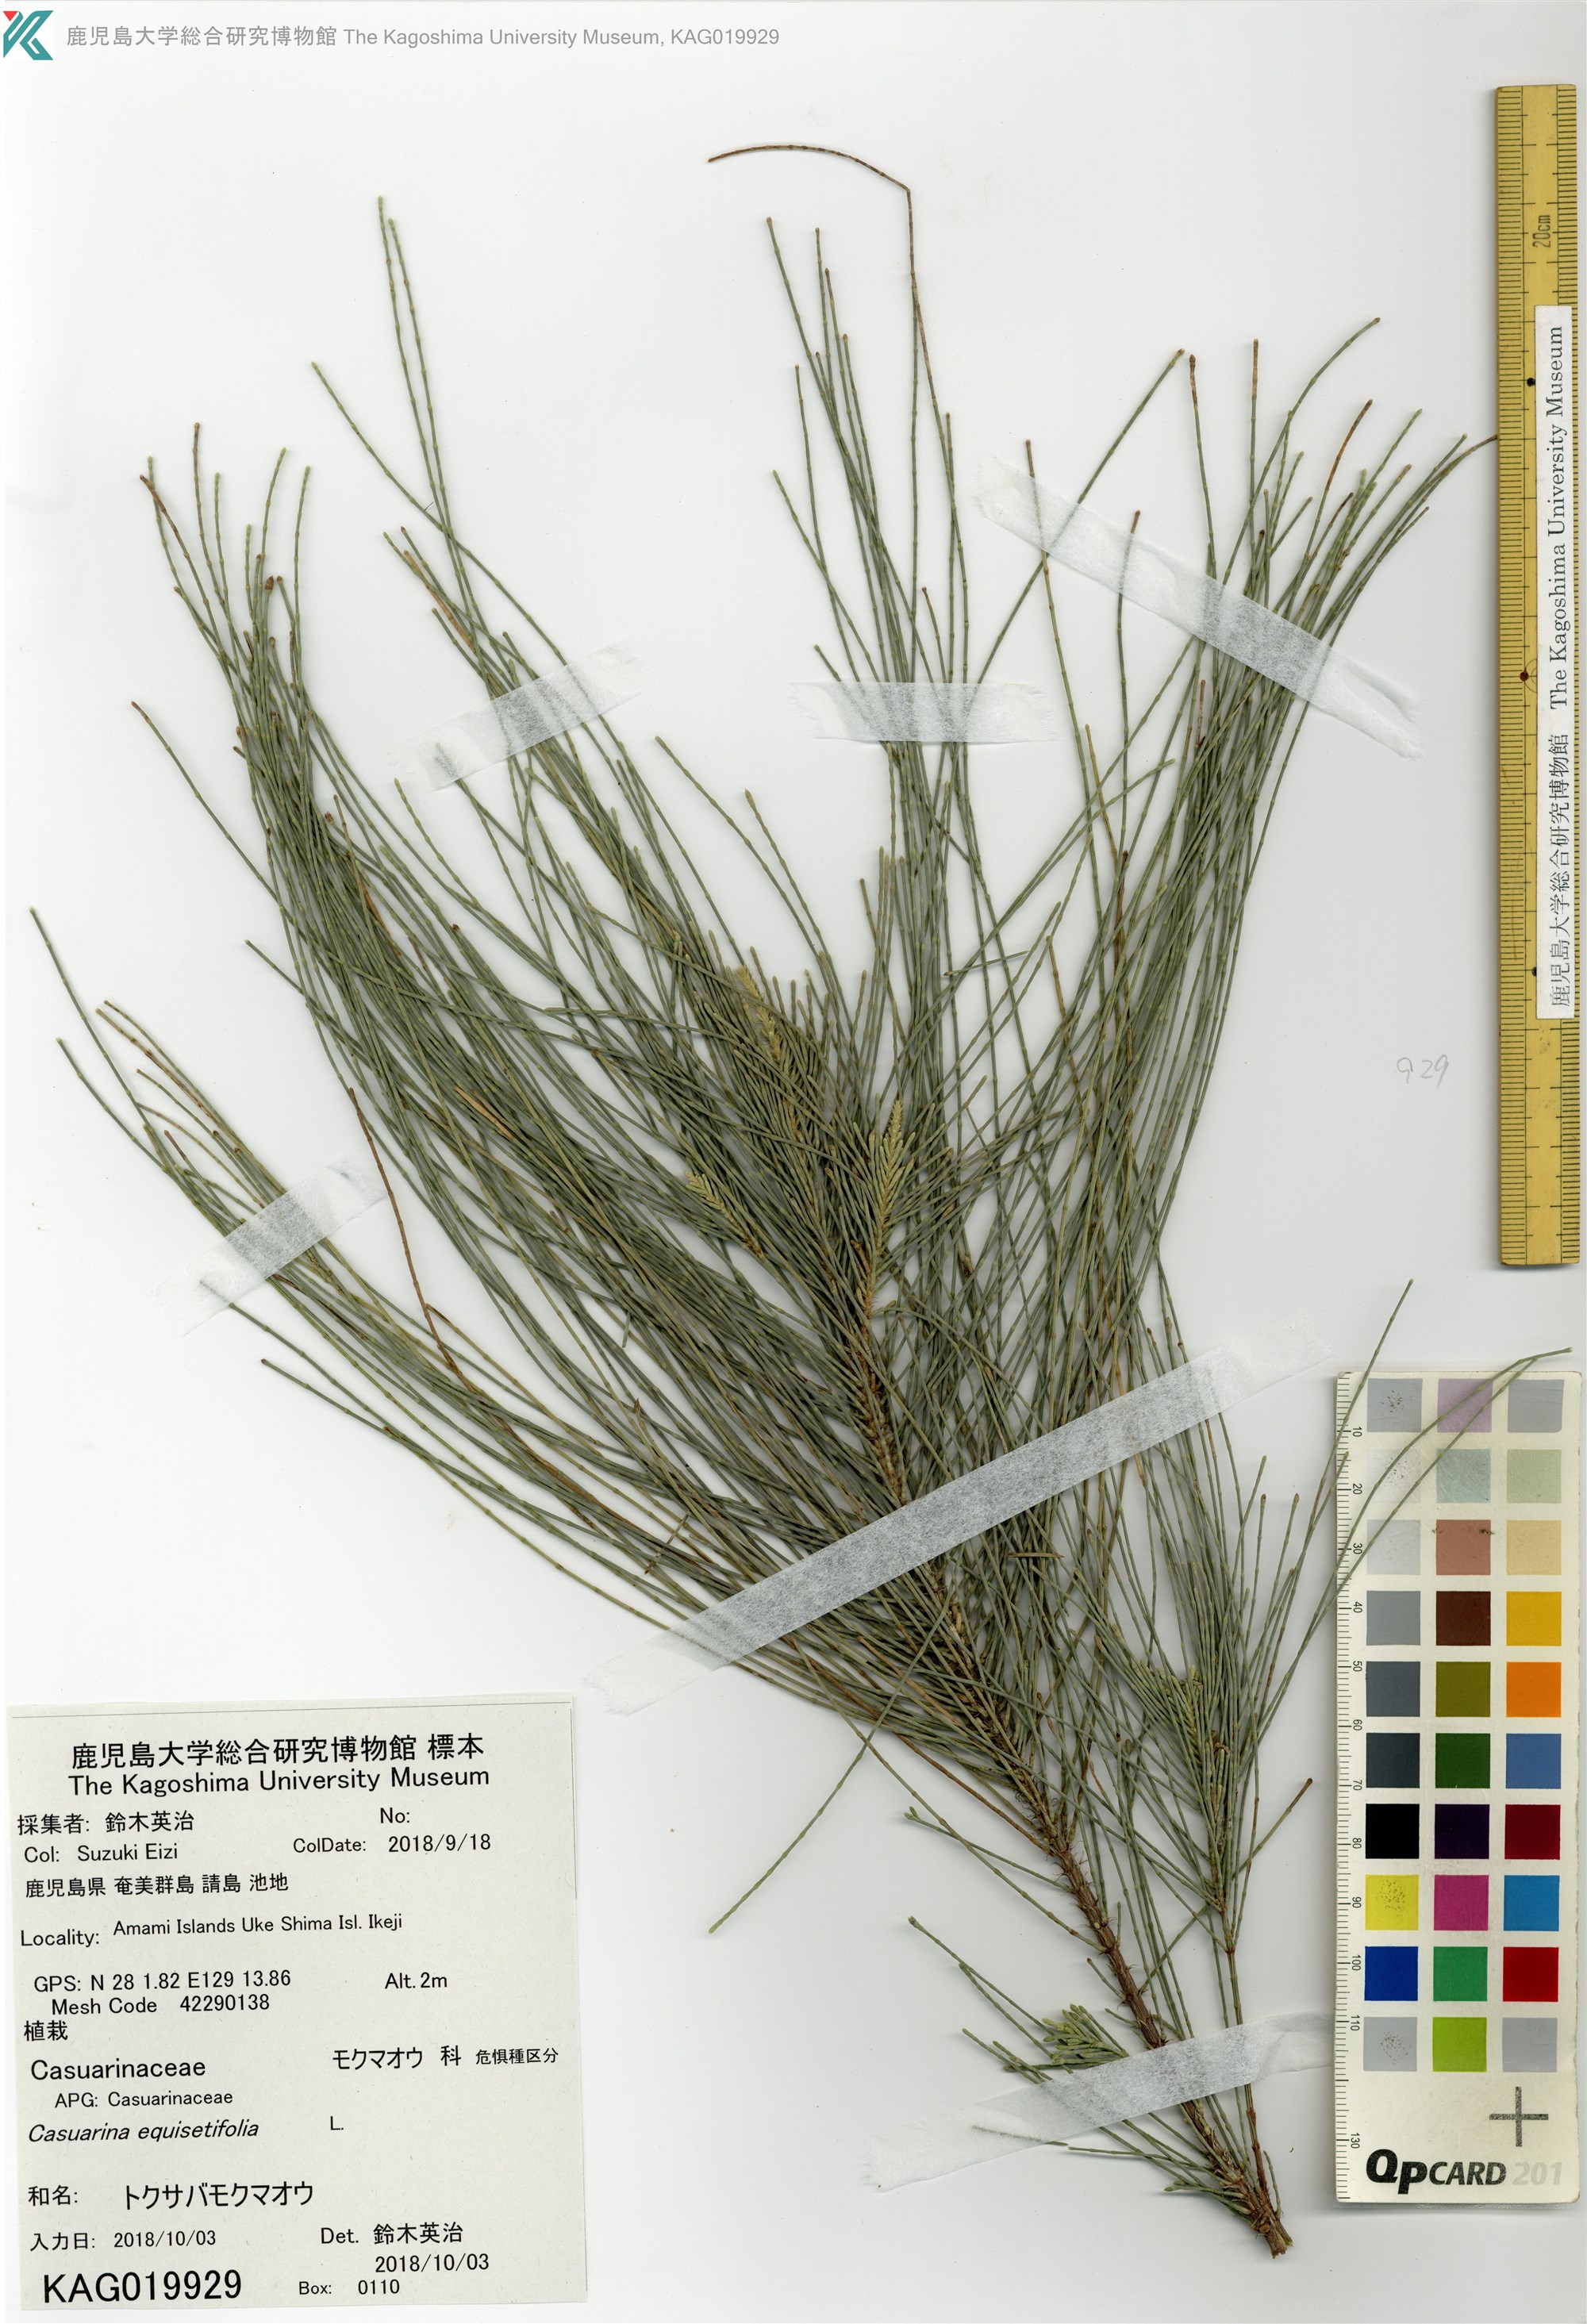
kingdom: Plantae
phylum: Tracheophyta
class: Magnoliopsida
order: Fagales
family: Casuarinaceae
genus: Casuarina
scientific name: Casuarina equisetifolia
